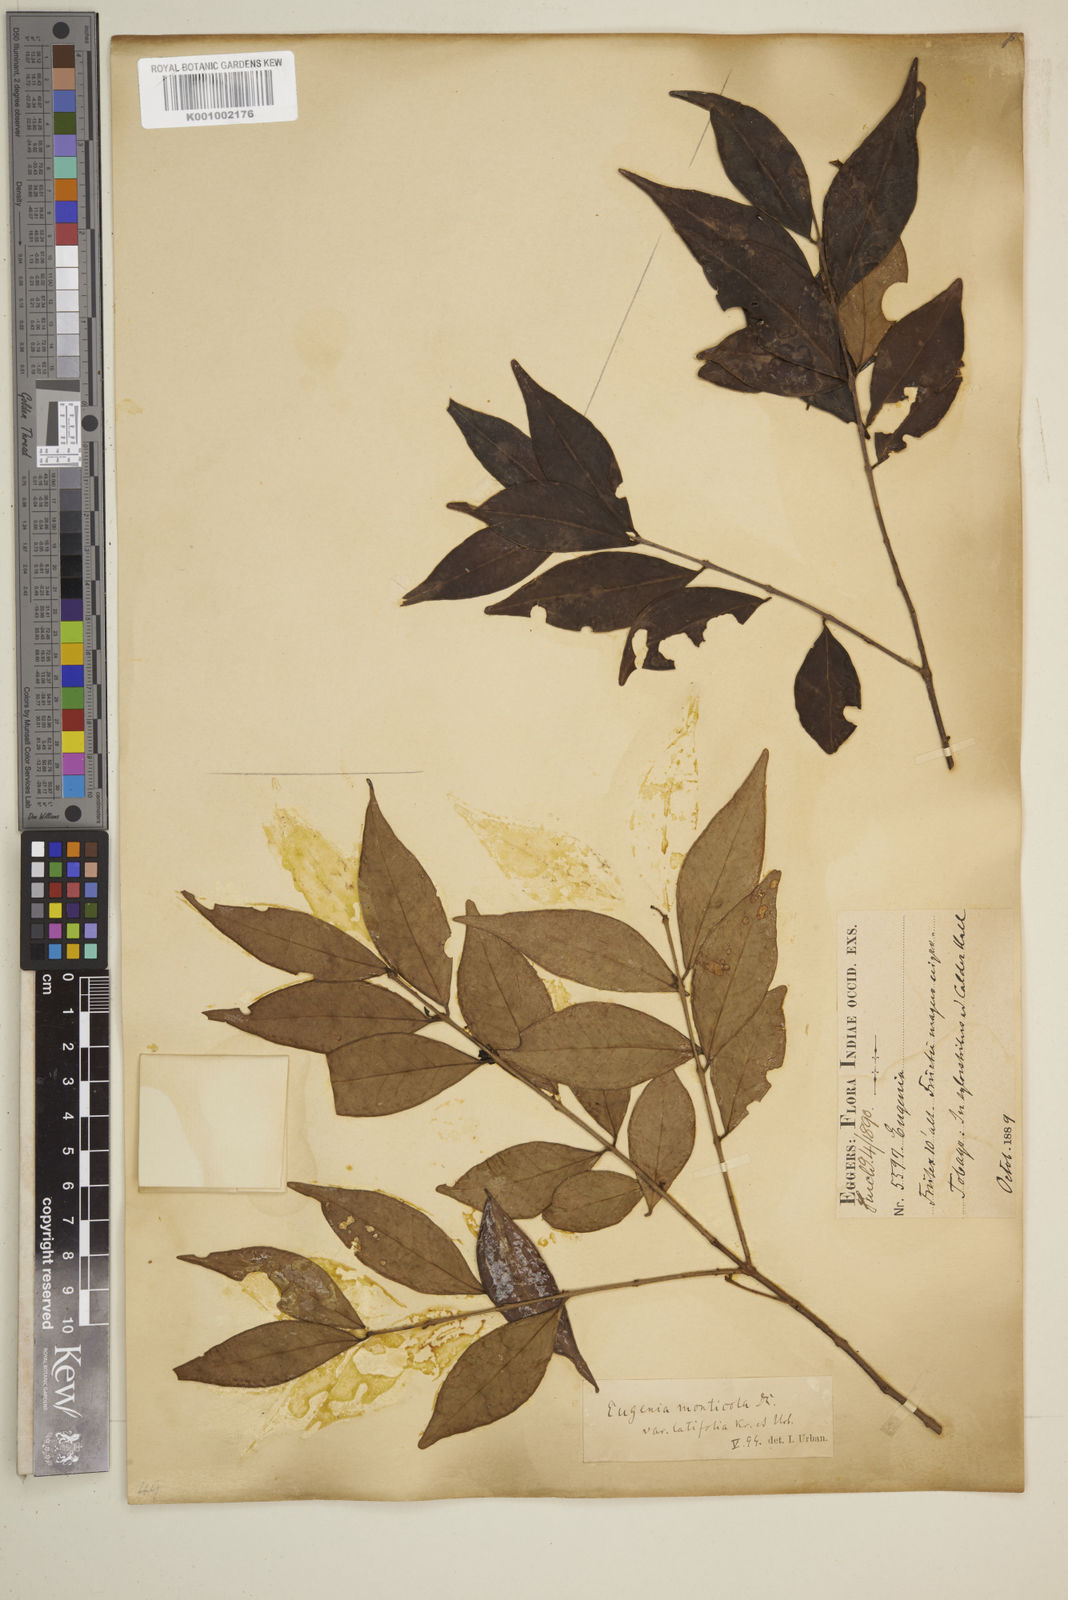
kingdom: Plantae
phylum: Tracheophyta
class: Magnoliopsida
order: Myrtales
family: Myrtaceae
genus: Eugenia
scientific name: Eugenia monticola
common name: Birds berry
